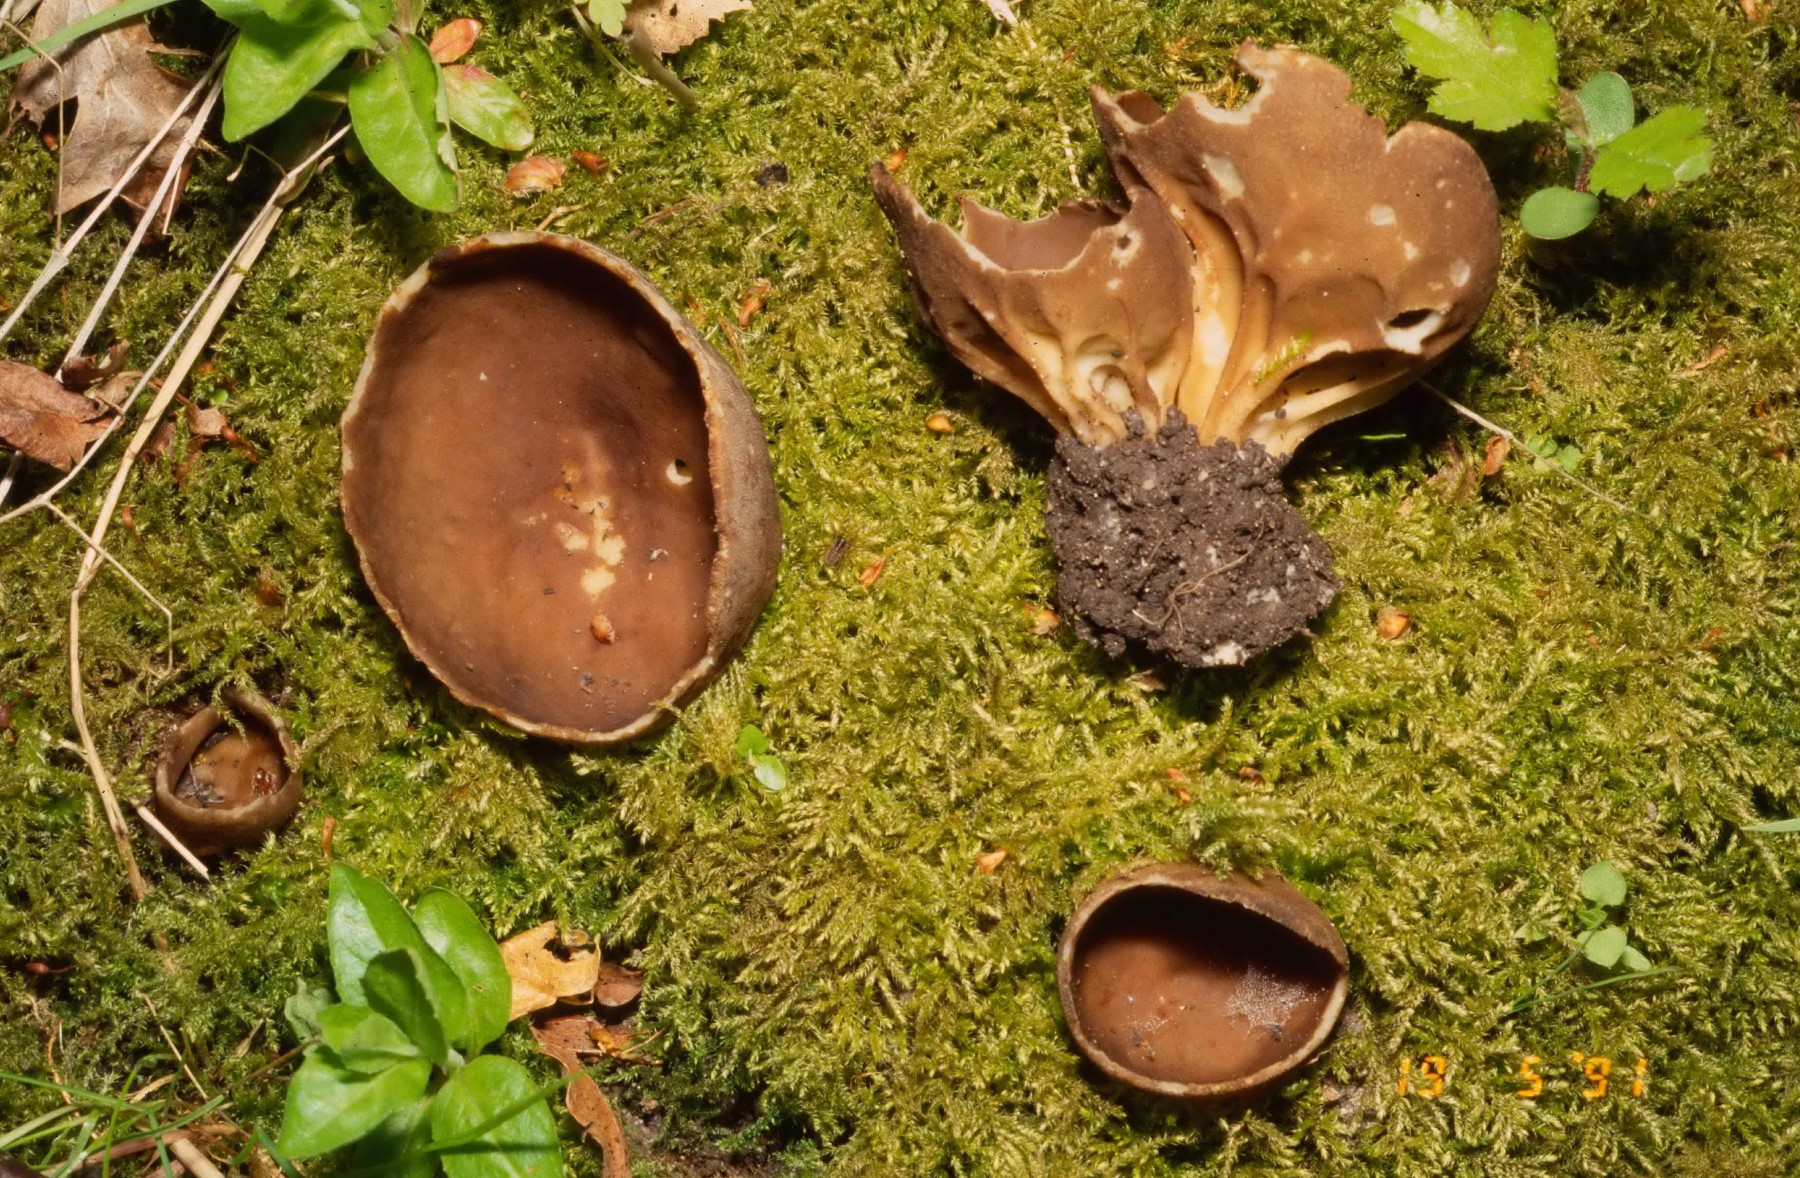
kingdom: Fungi
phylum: Ascomycota
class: Pezizomycetes
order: Pezizales
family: Helvellaceae
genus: Helvella
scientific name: Helvella acetabulum
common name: pokal-foldhat
